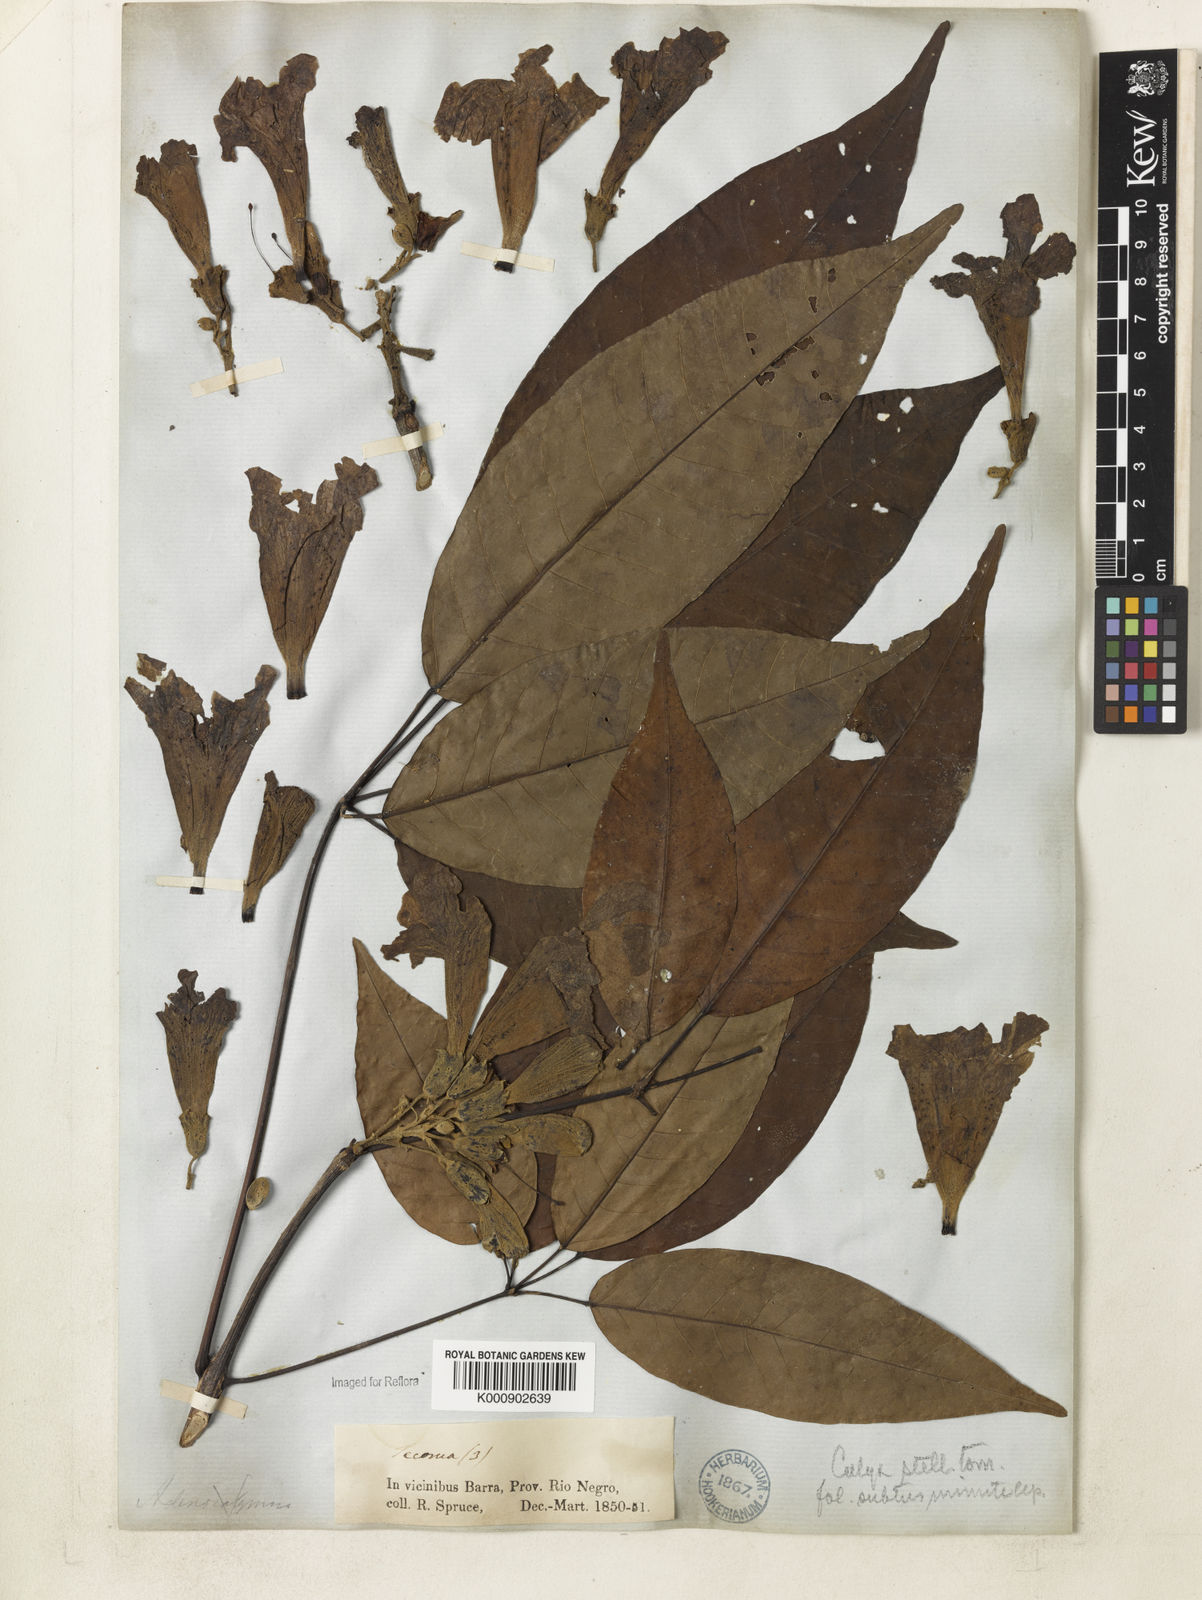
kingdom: Plantae
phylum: Tracheophyta
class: Magnoliopsida
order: Lamiales
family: Bignoniaceae
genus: Handroanthus
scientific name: Handroanthus barbatus
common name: Trumpet trees
